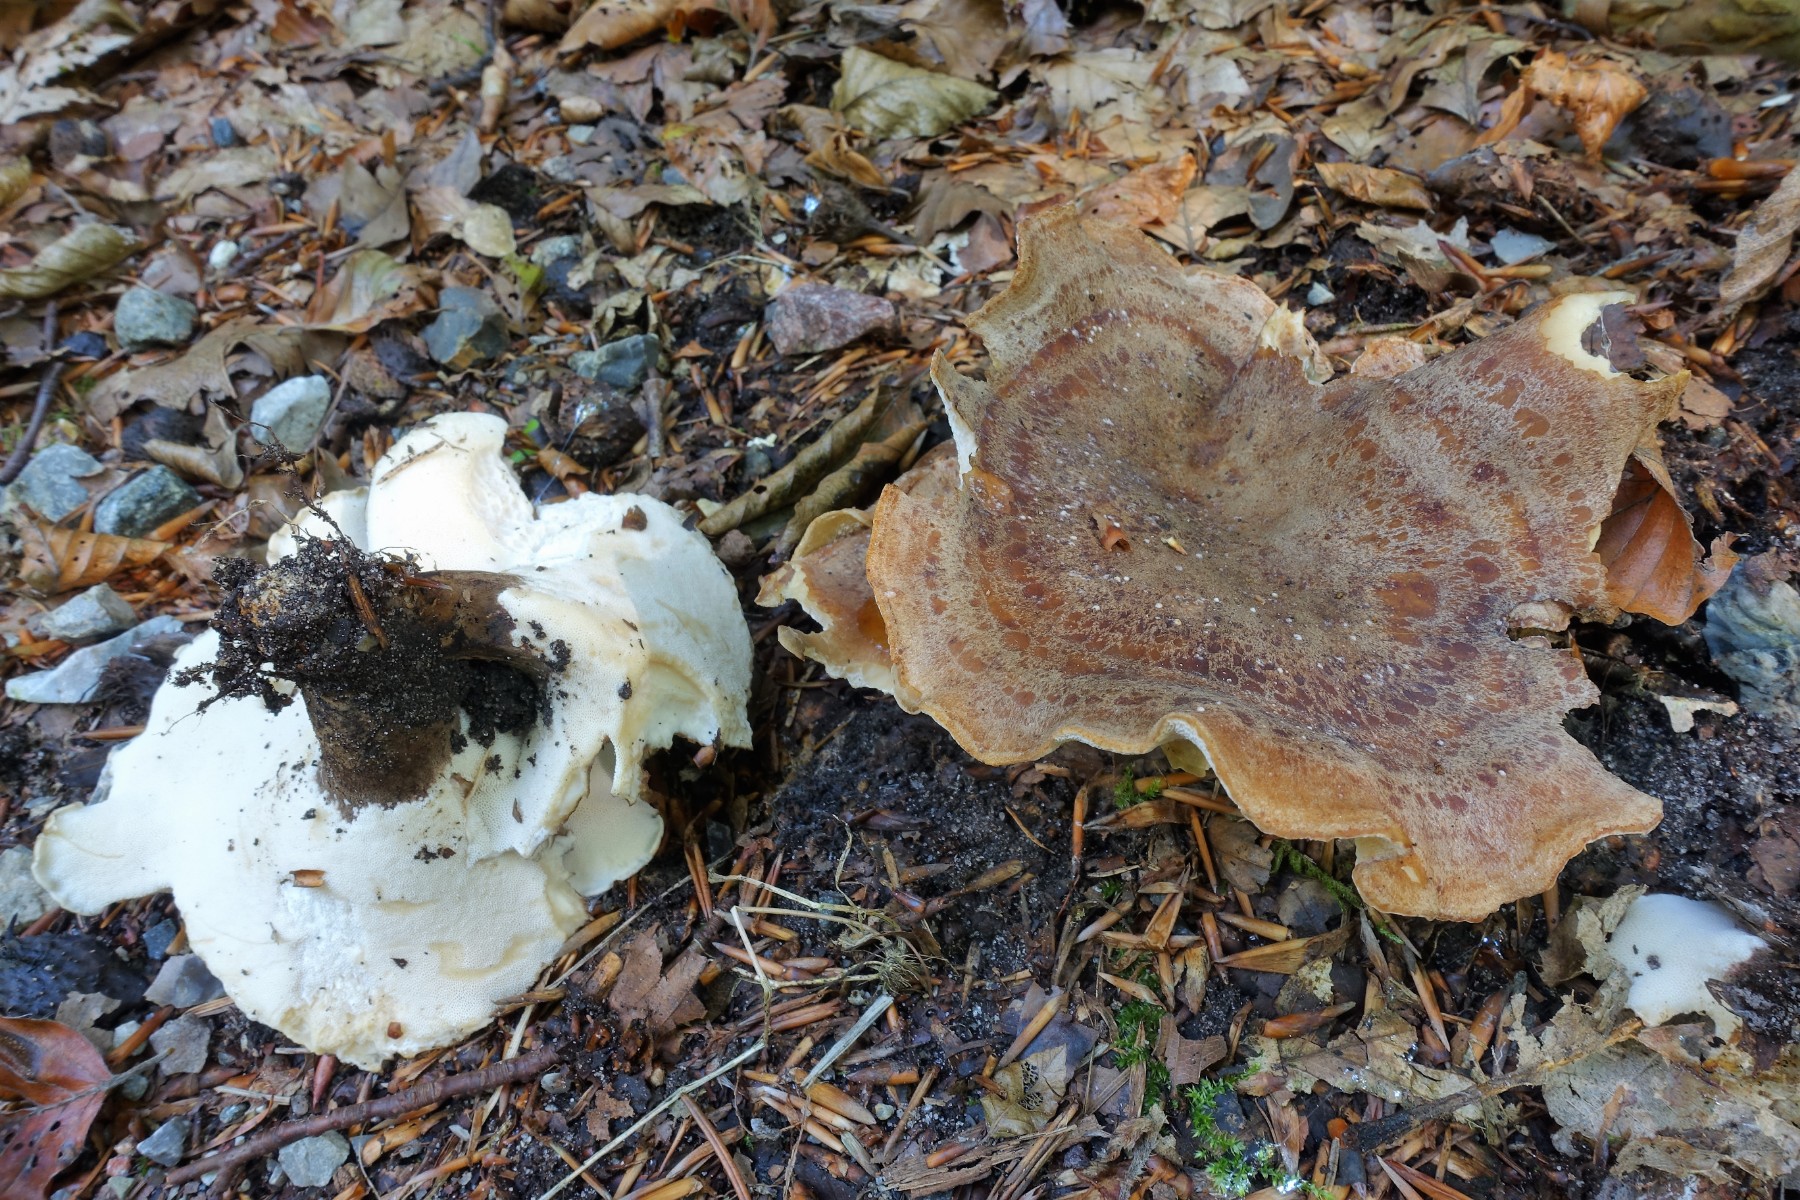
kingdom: Fungi
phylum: Basidiomycota
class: Agaricomycetes
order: Polyporales
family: Polyporaceae
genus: Cerioporus
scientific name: Cerioporus varius
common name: foranderlig stilkporesvamp
